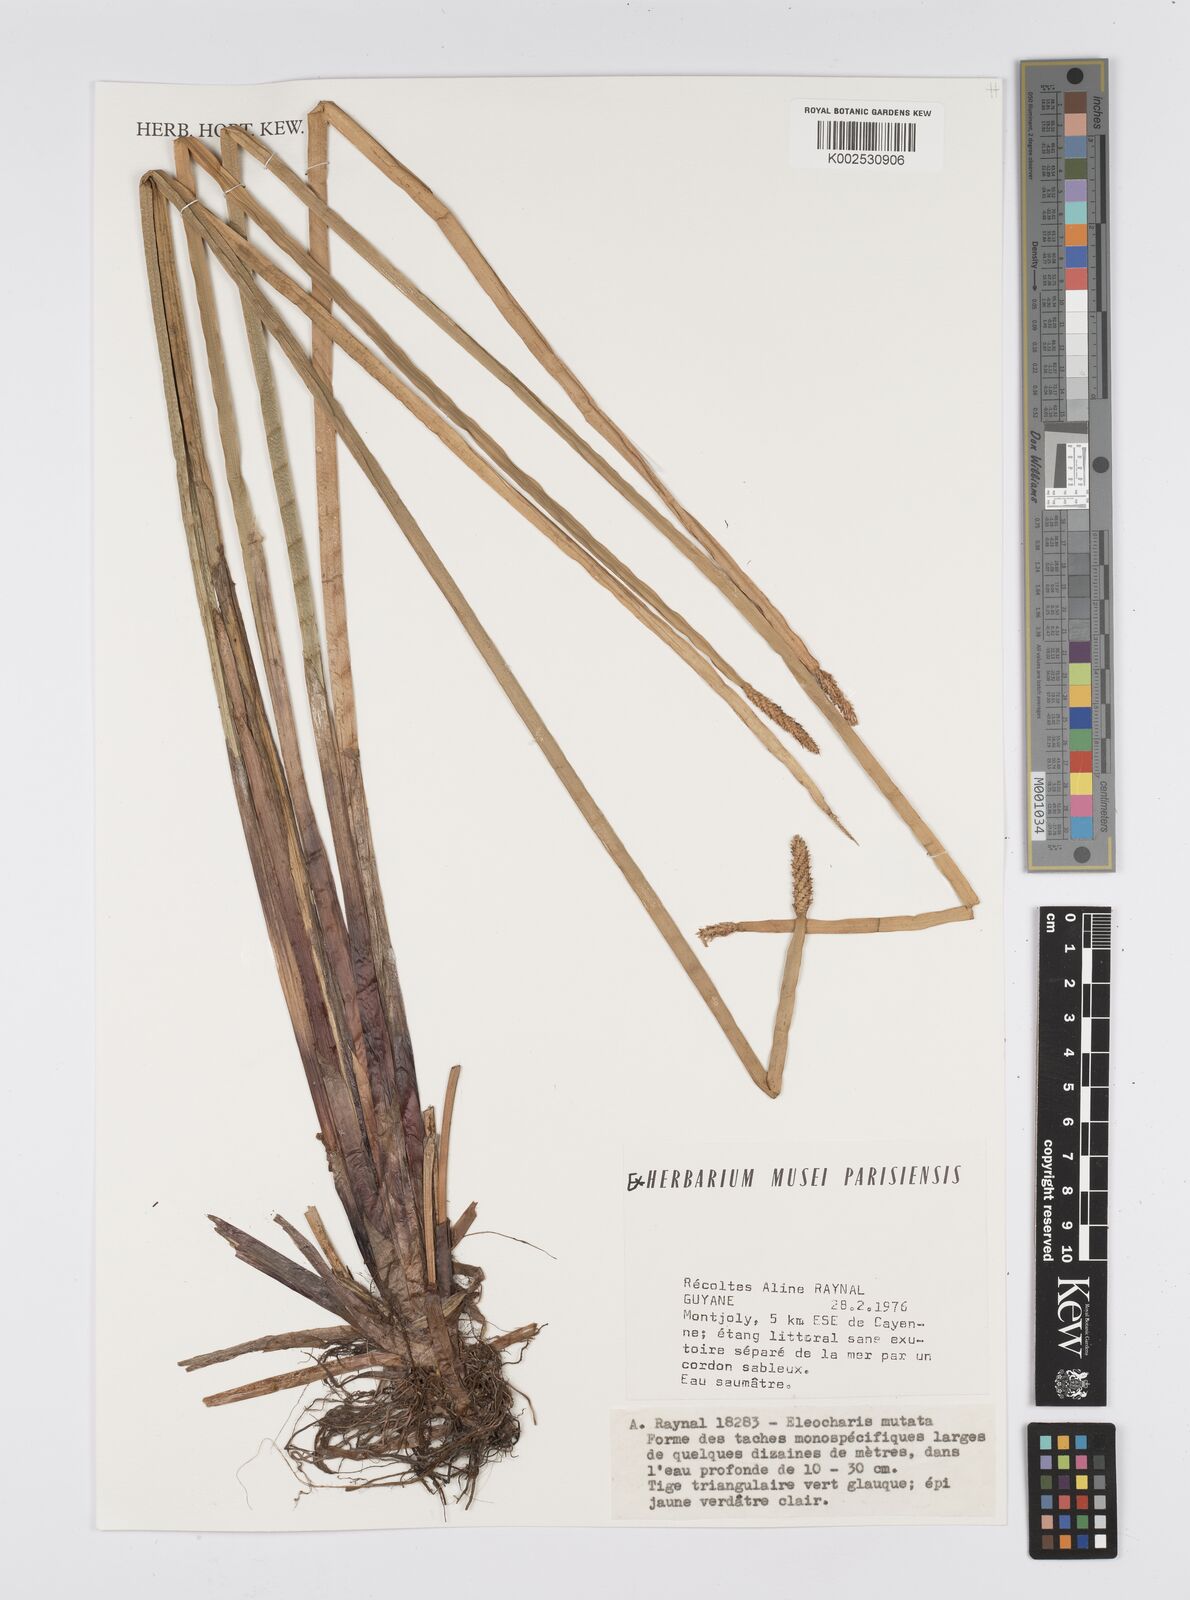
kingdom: Plantae
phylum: Tracheophyta
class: Liliopsida
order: Poales
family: Cyperaceae
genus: Eleocharis
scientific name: Eleocharis mutata
